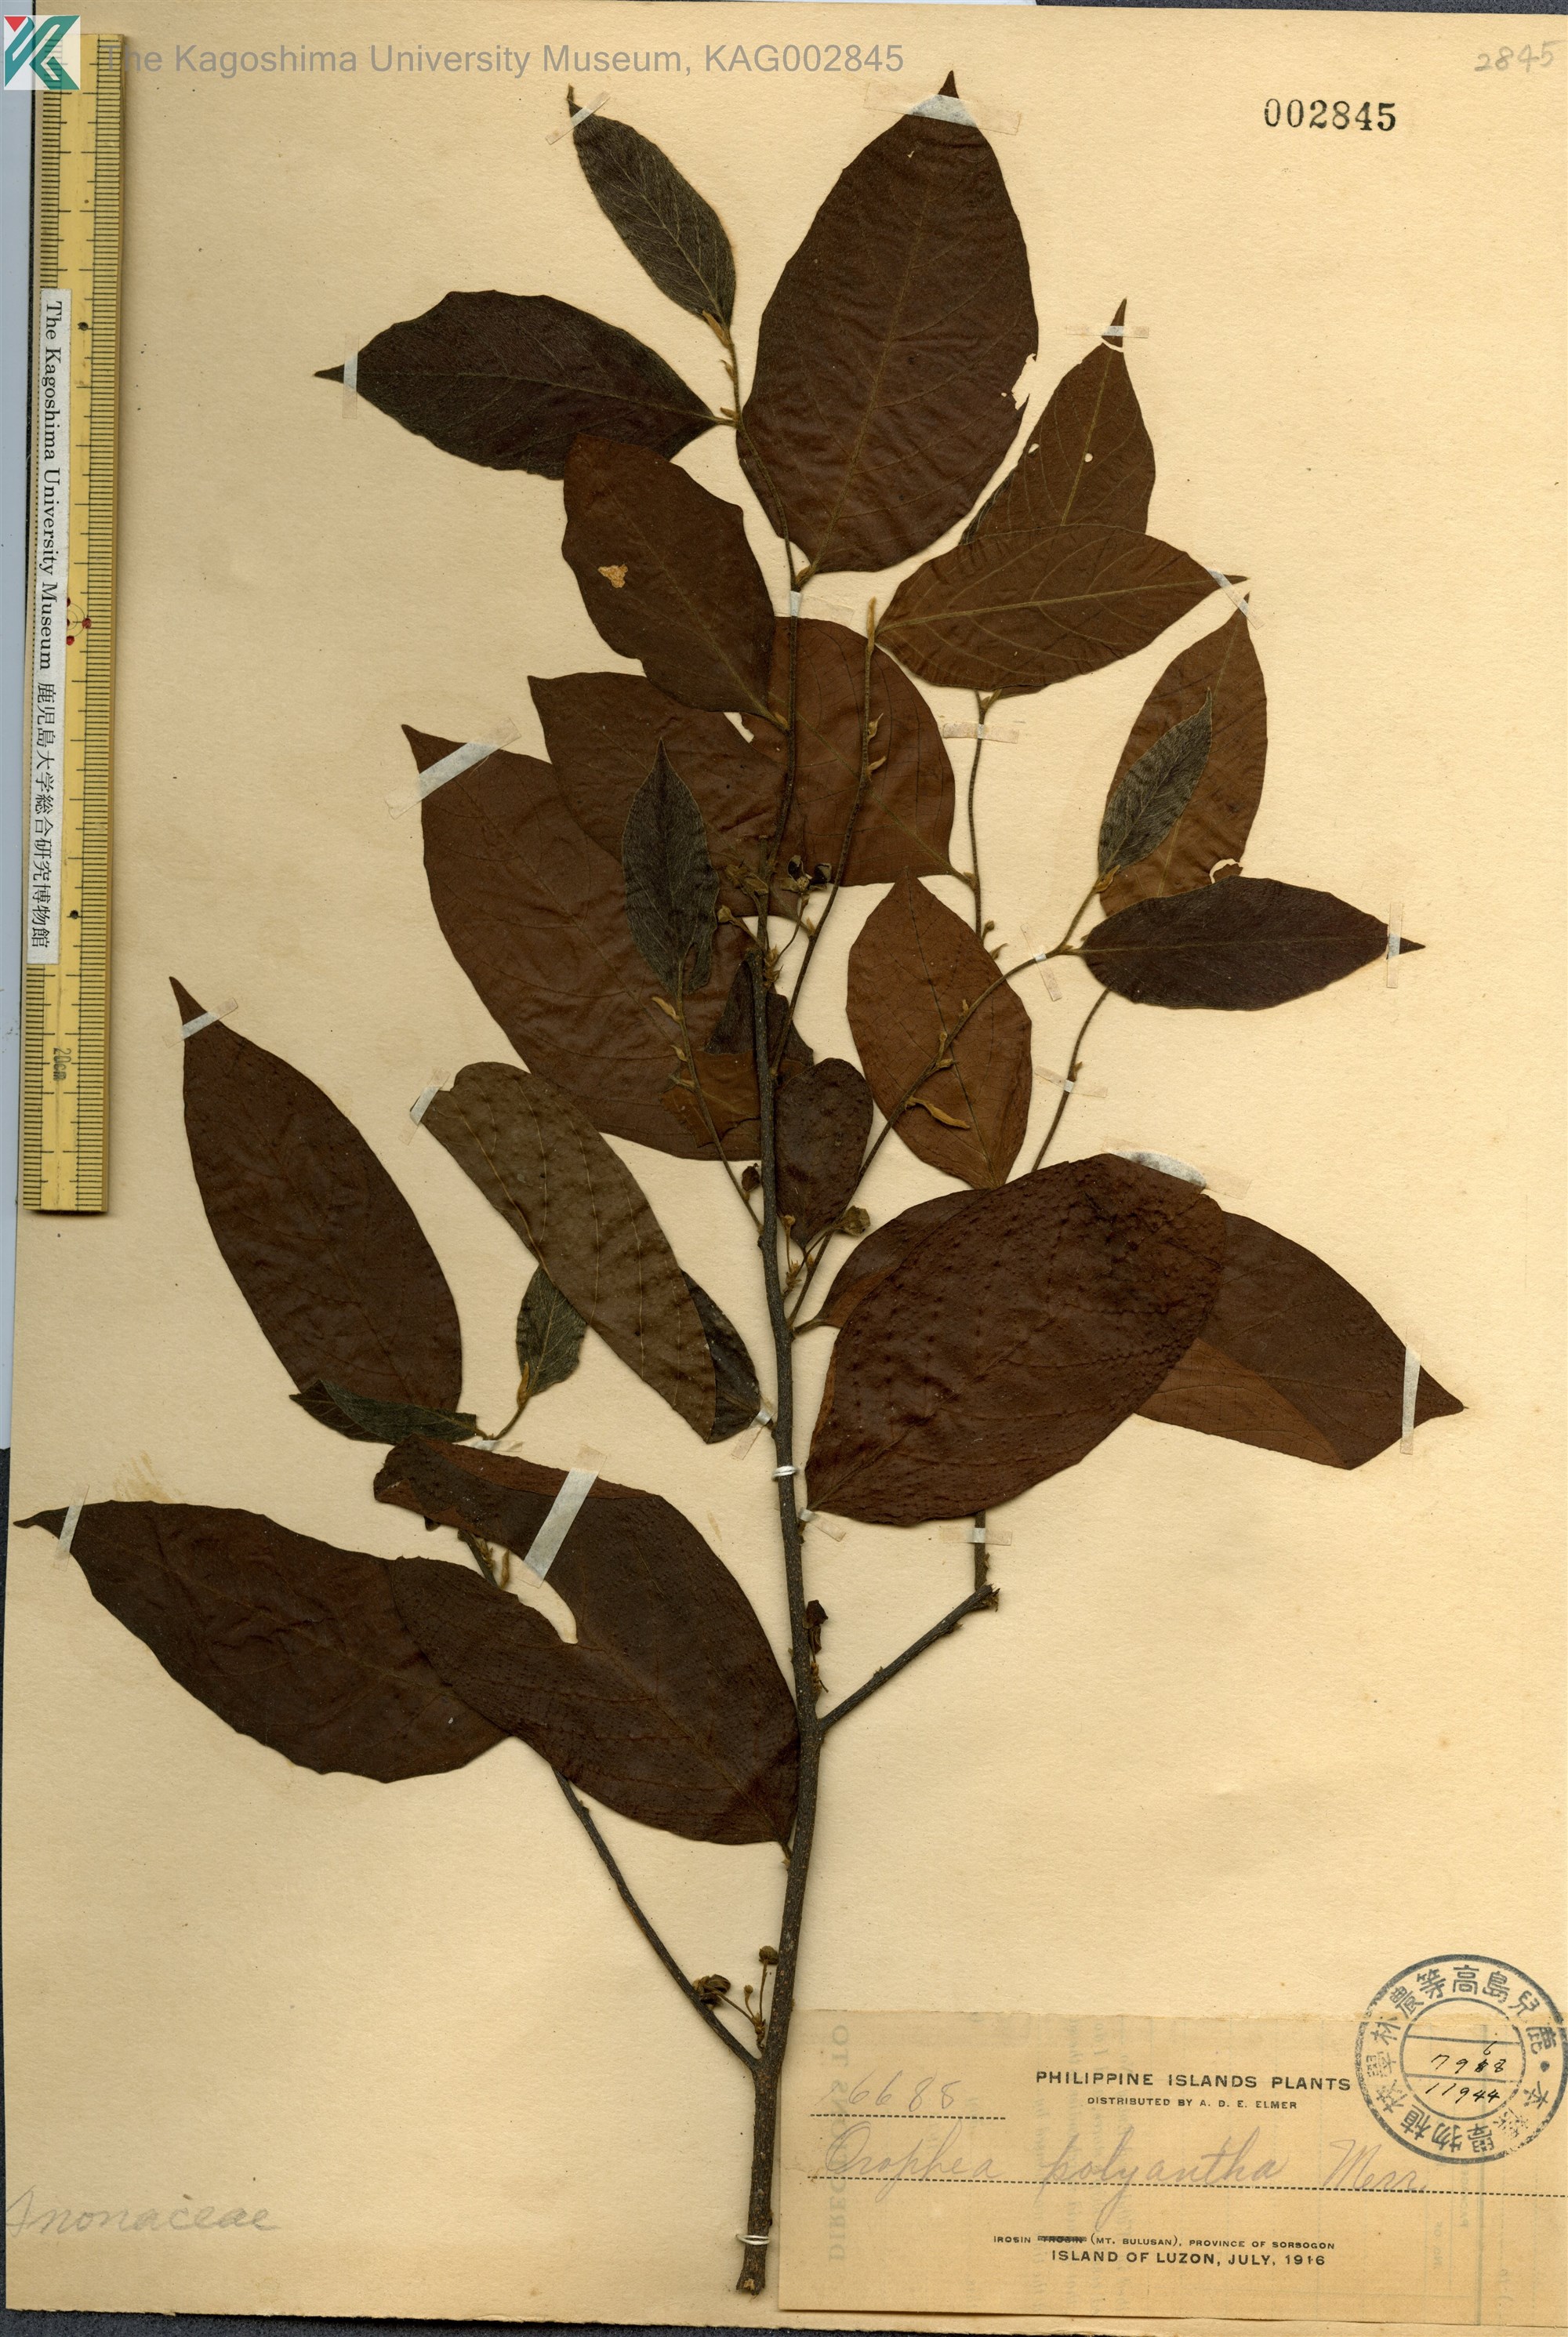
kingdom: Plantae
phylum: Tracheophyta
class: Magnoliopsida
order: Magnoliales
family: Annonaceae
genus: Orophea
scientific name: Orophea cumingiana
